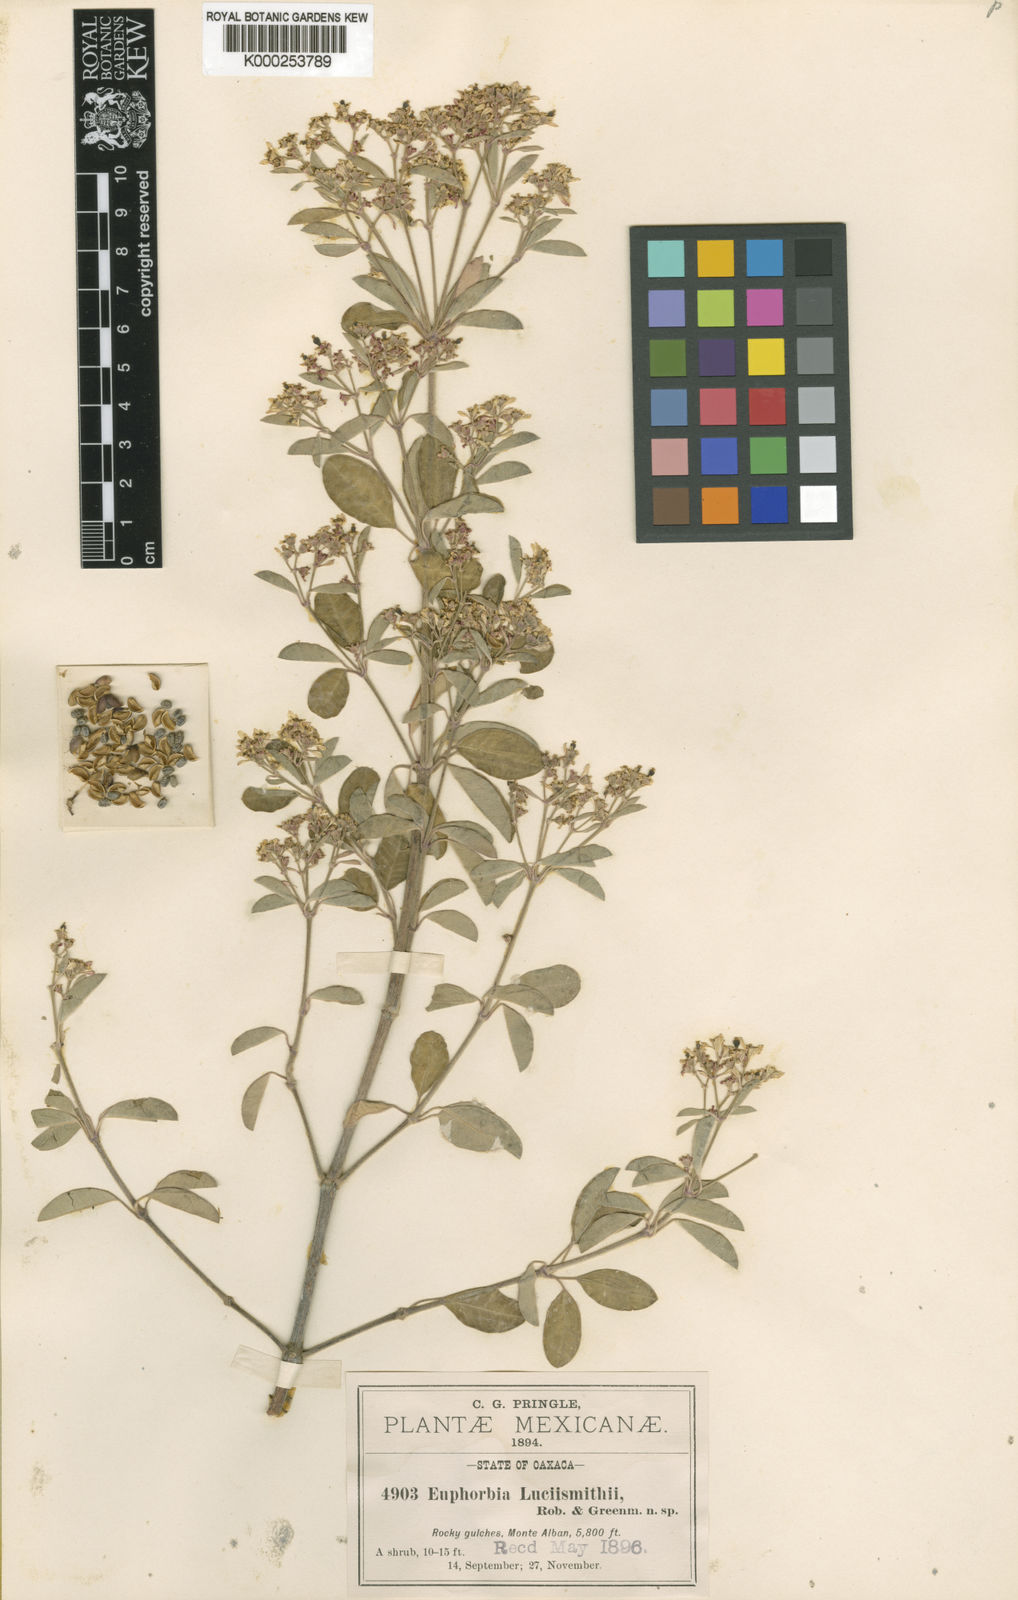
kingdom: Plantae
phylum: Tracheophyta
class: Magnoliopsida
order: Malpighiales
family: Euphorbiaceae
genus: Euphorbia
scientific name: Euphorbia lucii-smithii
